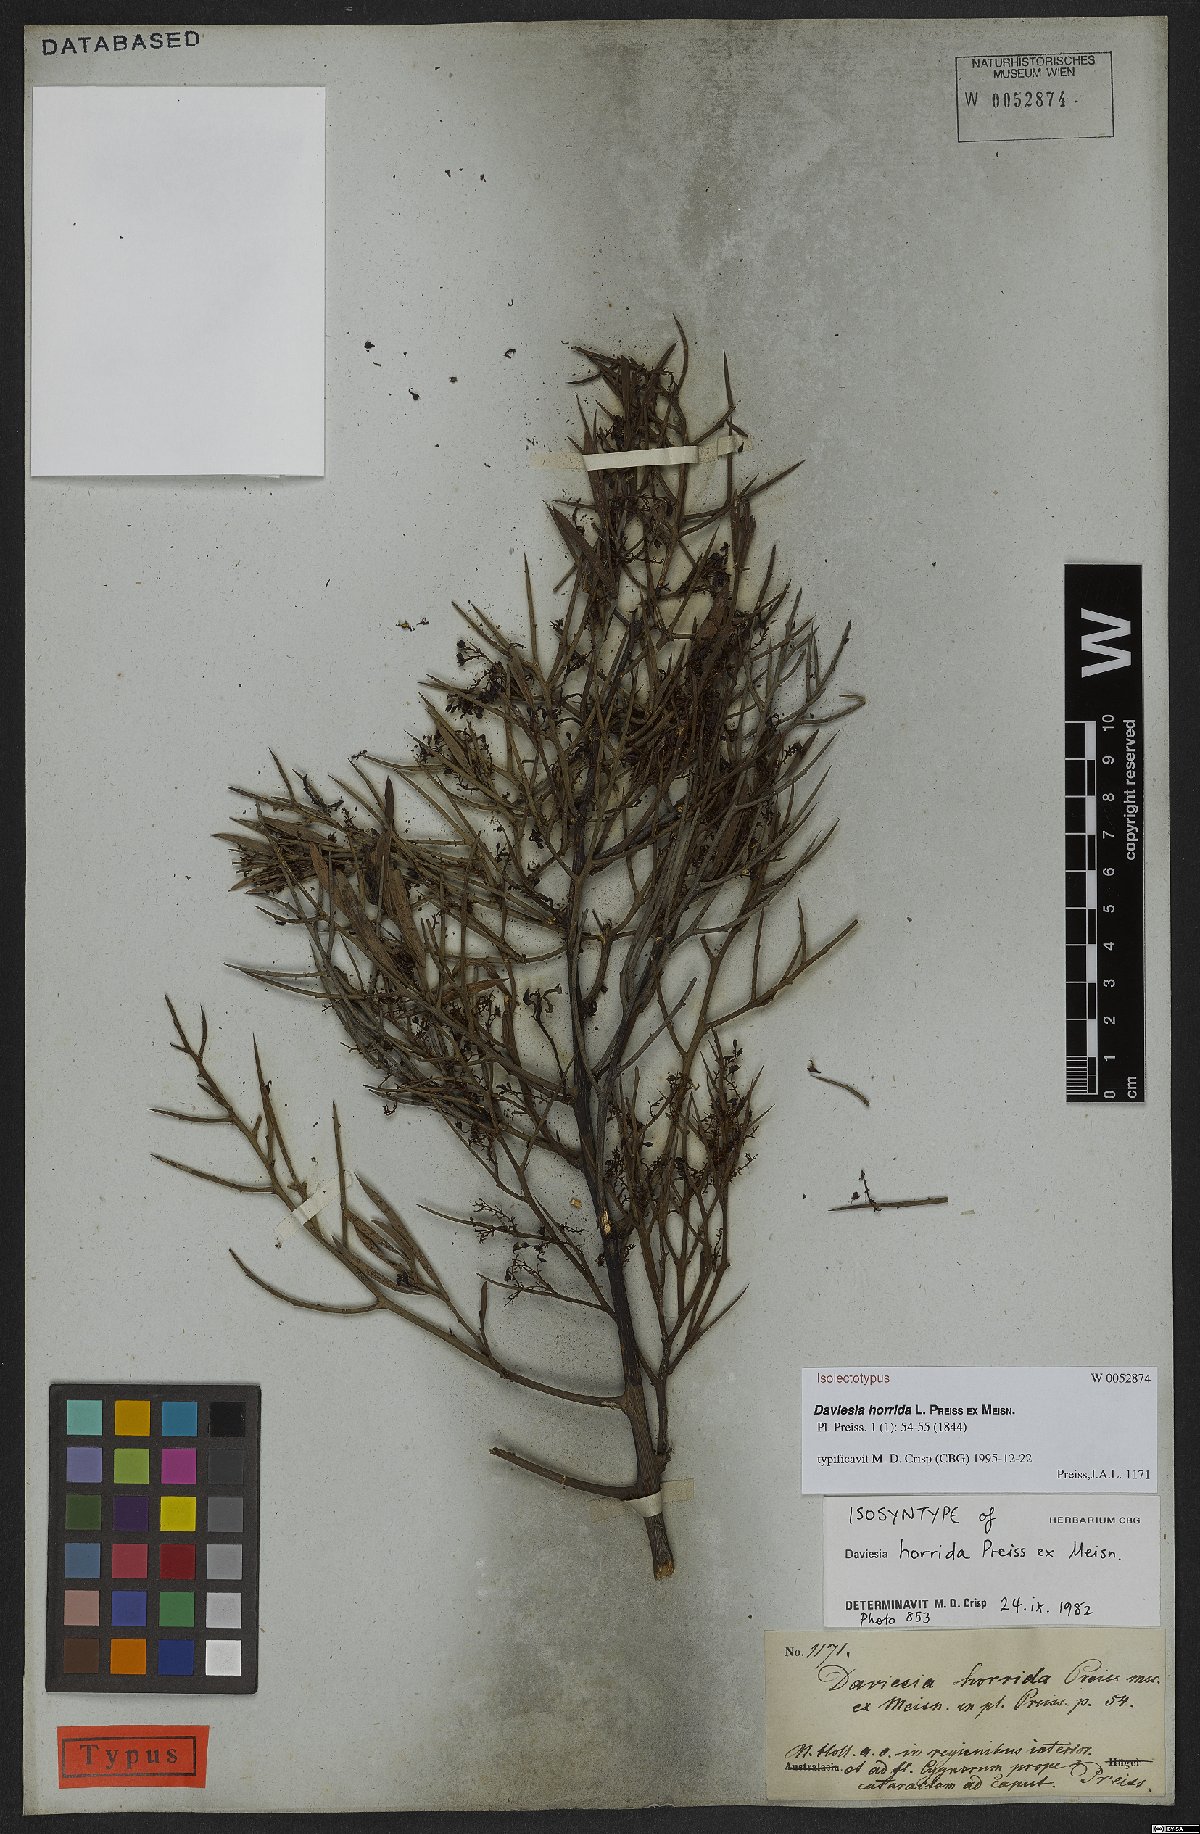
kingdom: Plantae
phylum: Tracheophyta
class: Magnoliopsida
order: Fabales
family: Fabaceae
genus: Daviesia
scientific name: Daviesia horrida
